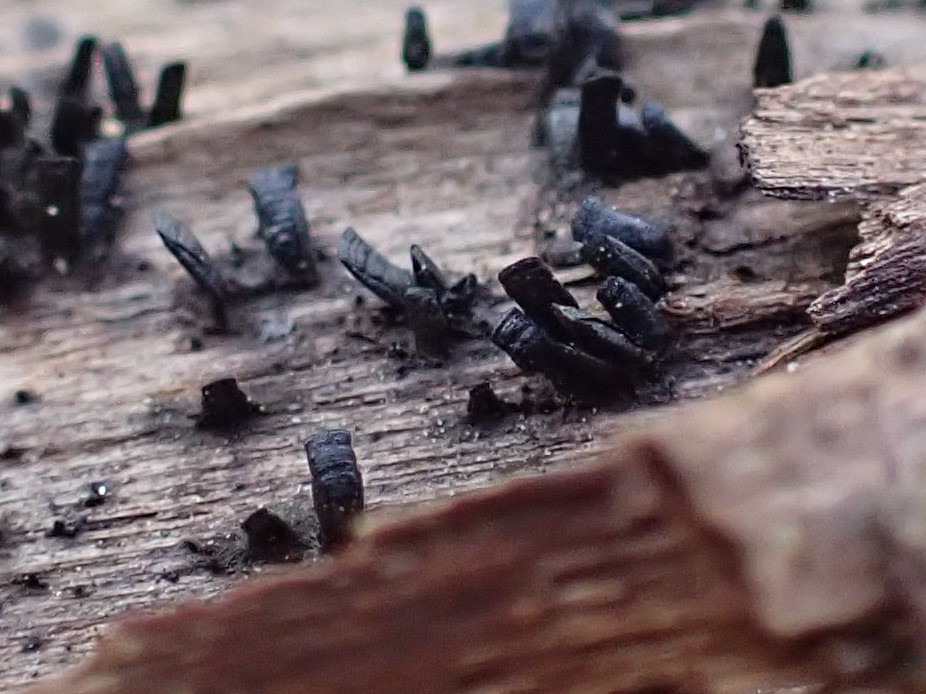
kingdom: Fungi
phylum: Ascomycota
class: Eurotiomycetes
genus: Glyphium
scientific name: Glyphium elatum
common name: kuløkse
